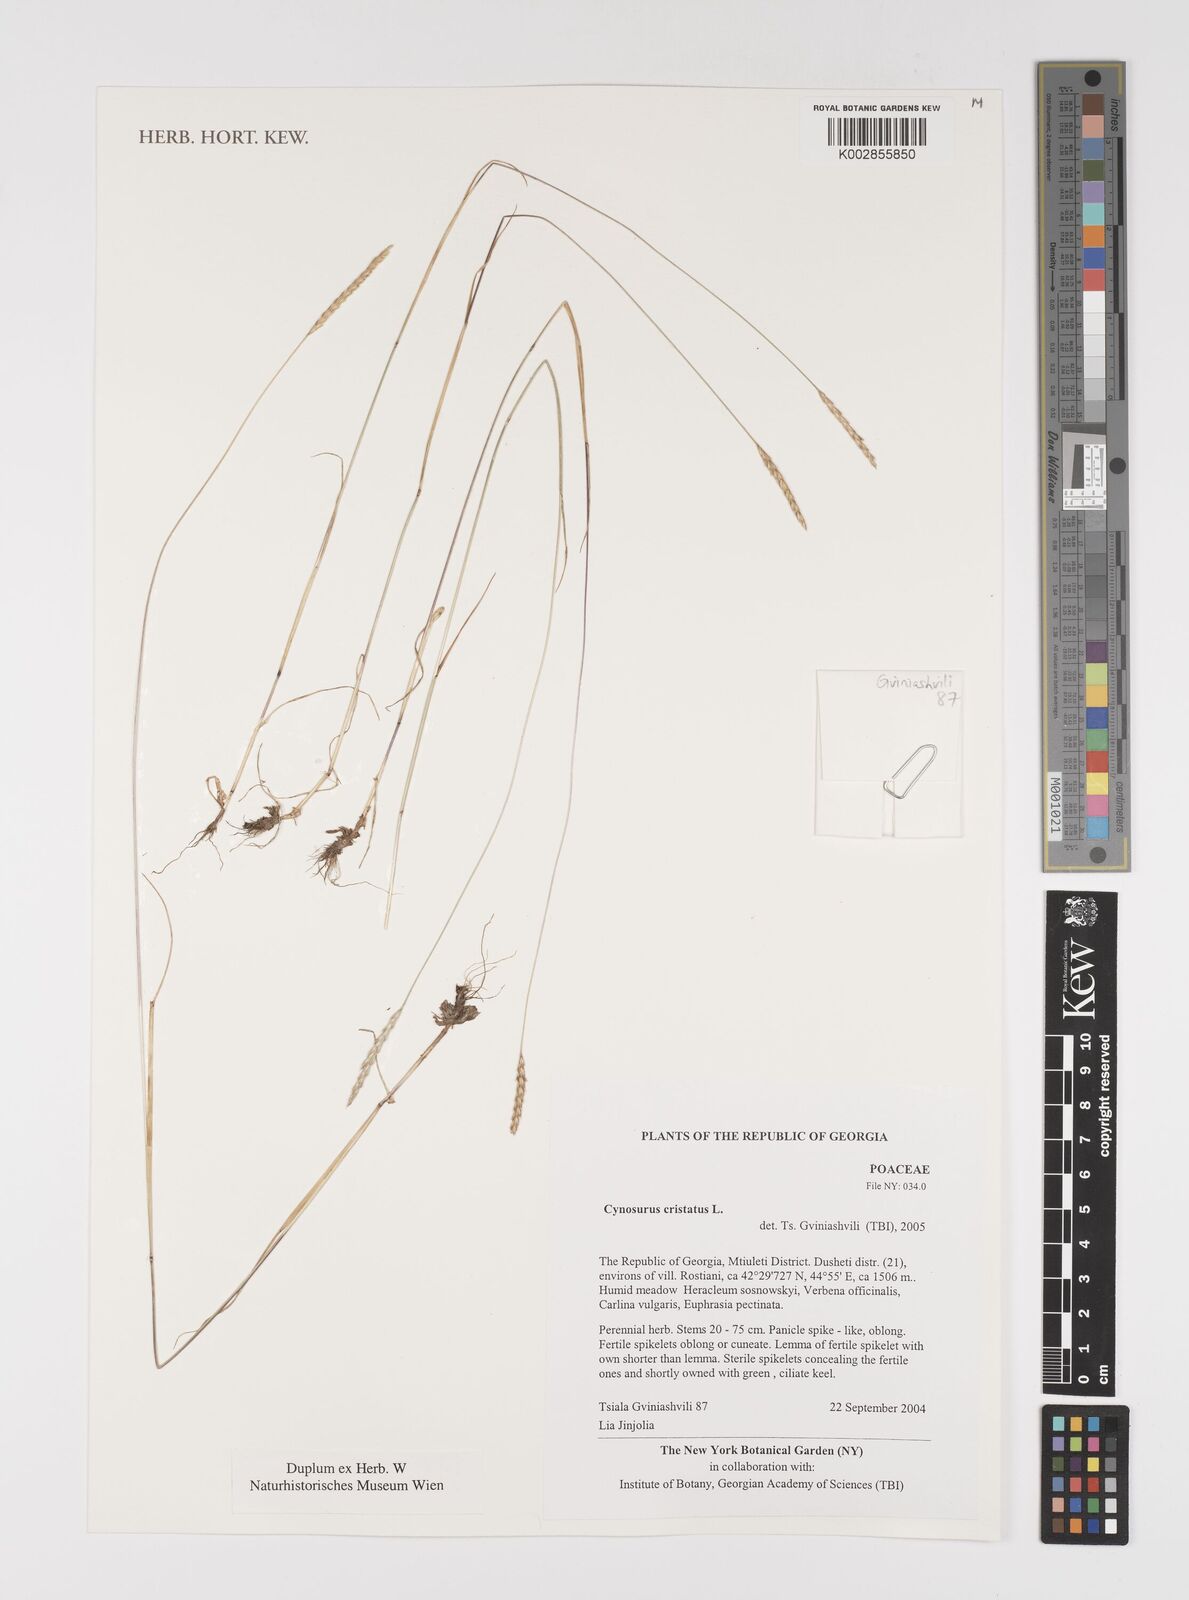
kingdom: Plantae
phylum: Tracheophyta
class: Liliopsida
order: Poales
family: Poaceae
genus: Cynosurus
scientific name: Cynosurus cristatus
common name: Crested dog's-tail
